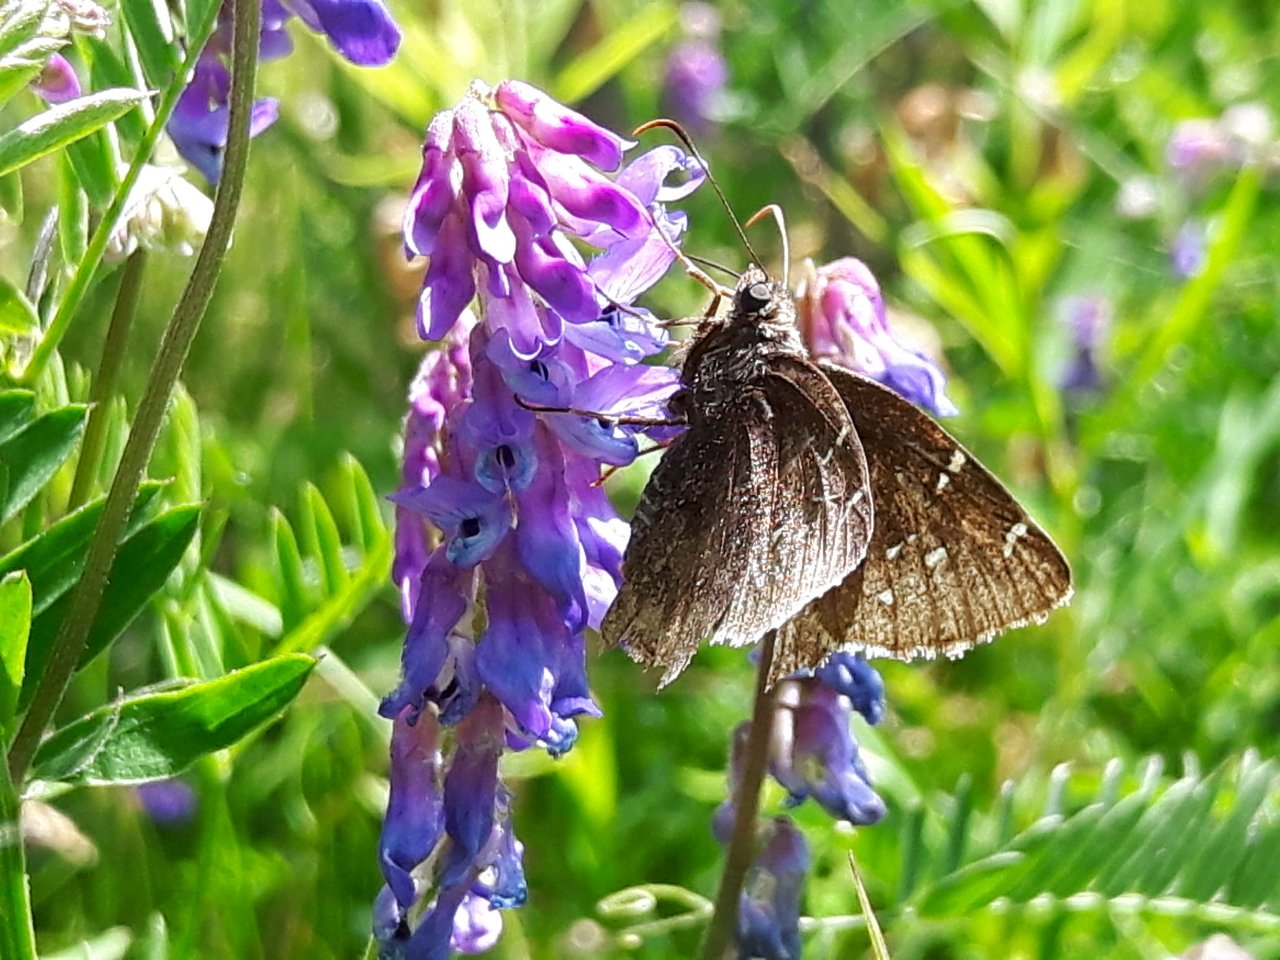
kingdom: Animalia
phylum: Arthropoda
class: Insecta
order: Lepidoptera
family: Hesperiidae
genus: Autochton
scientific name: Autochton
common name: Northern Cloudywing
